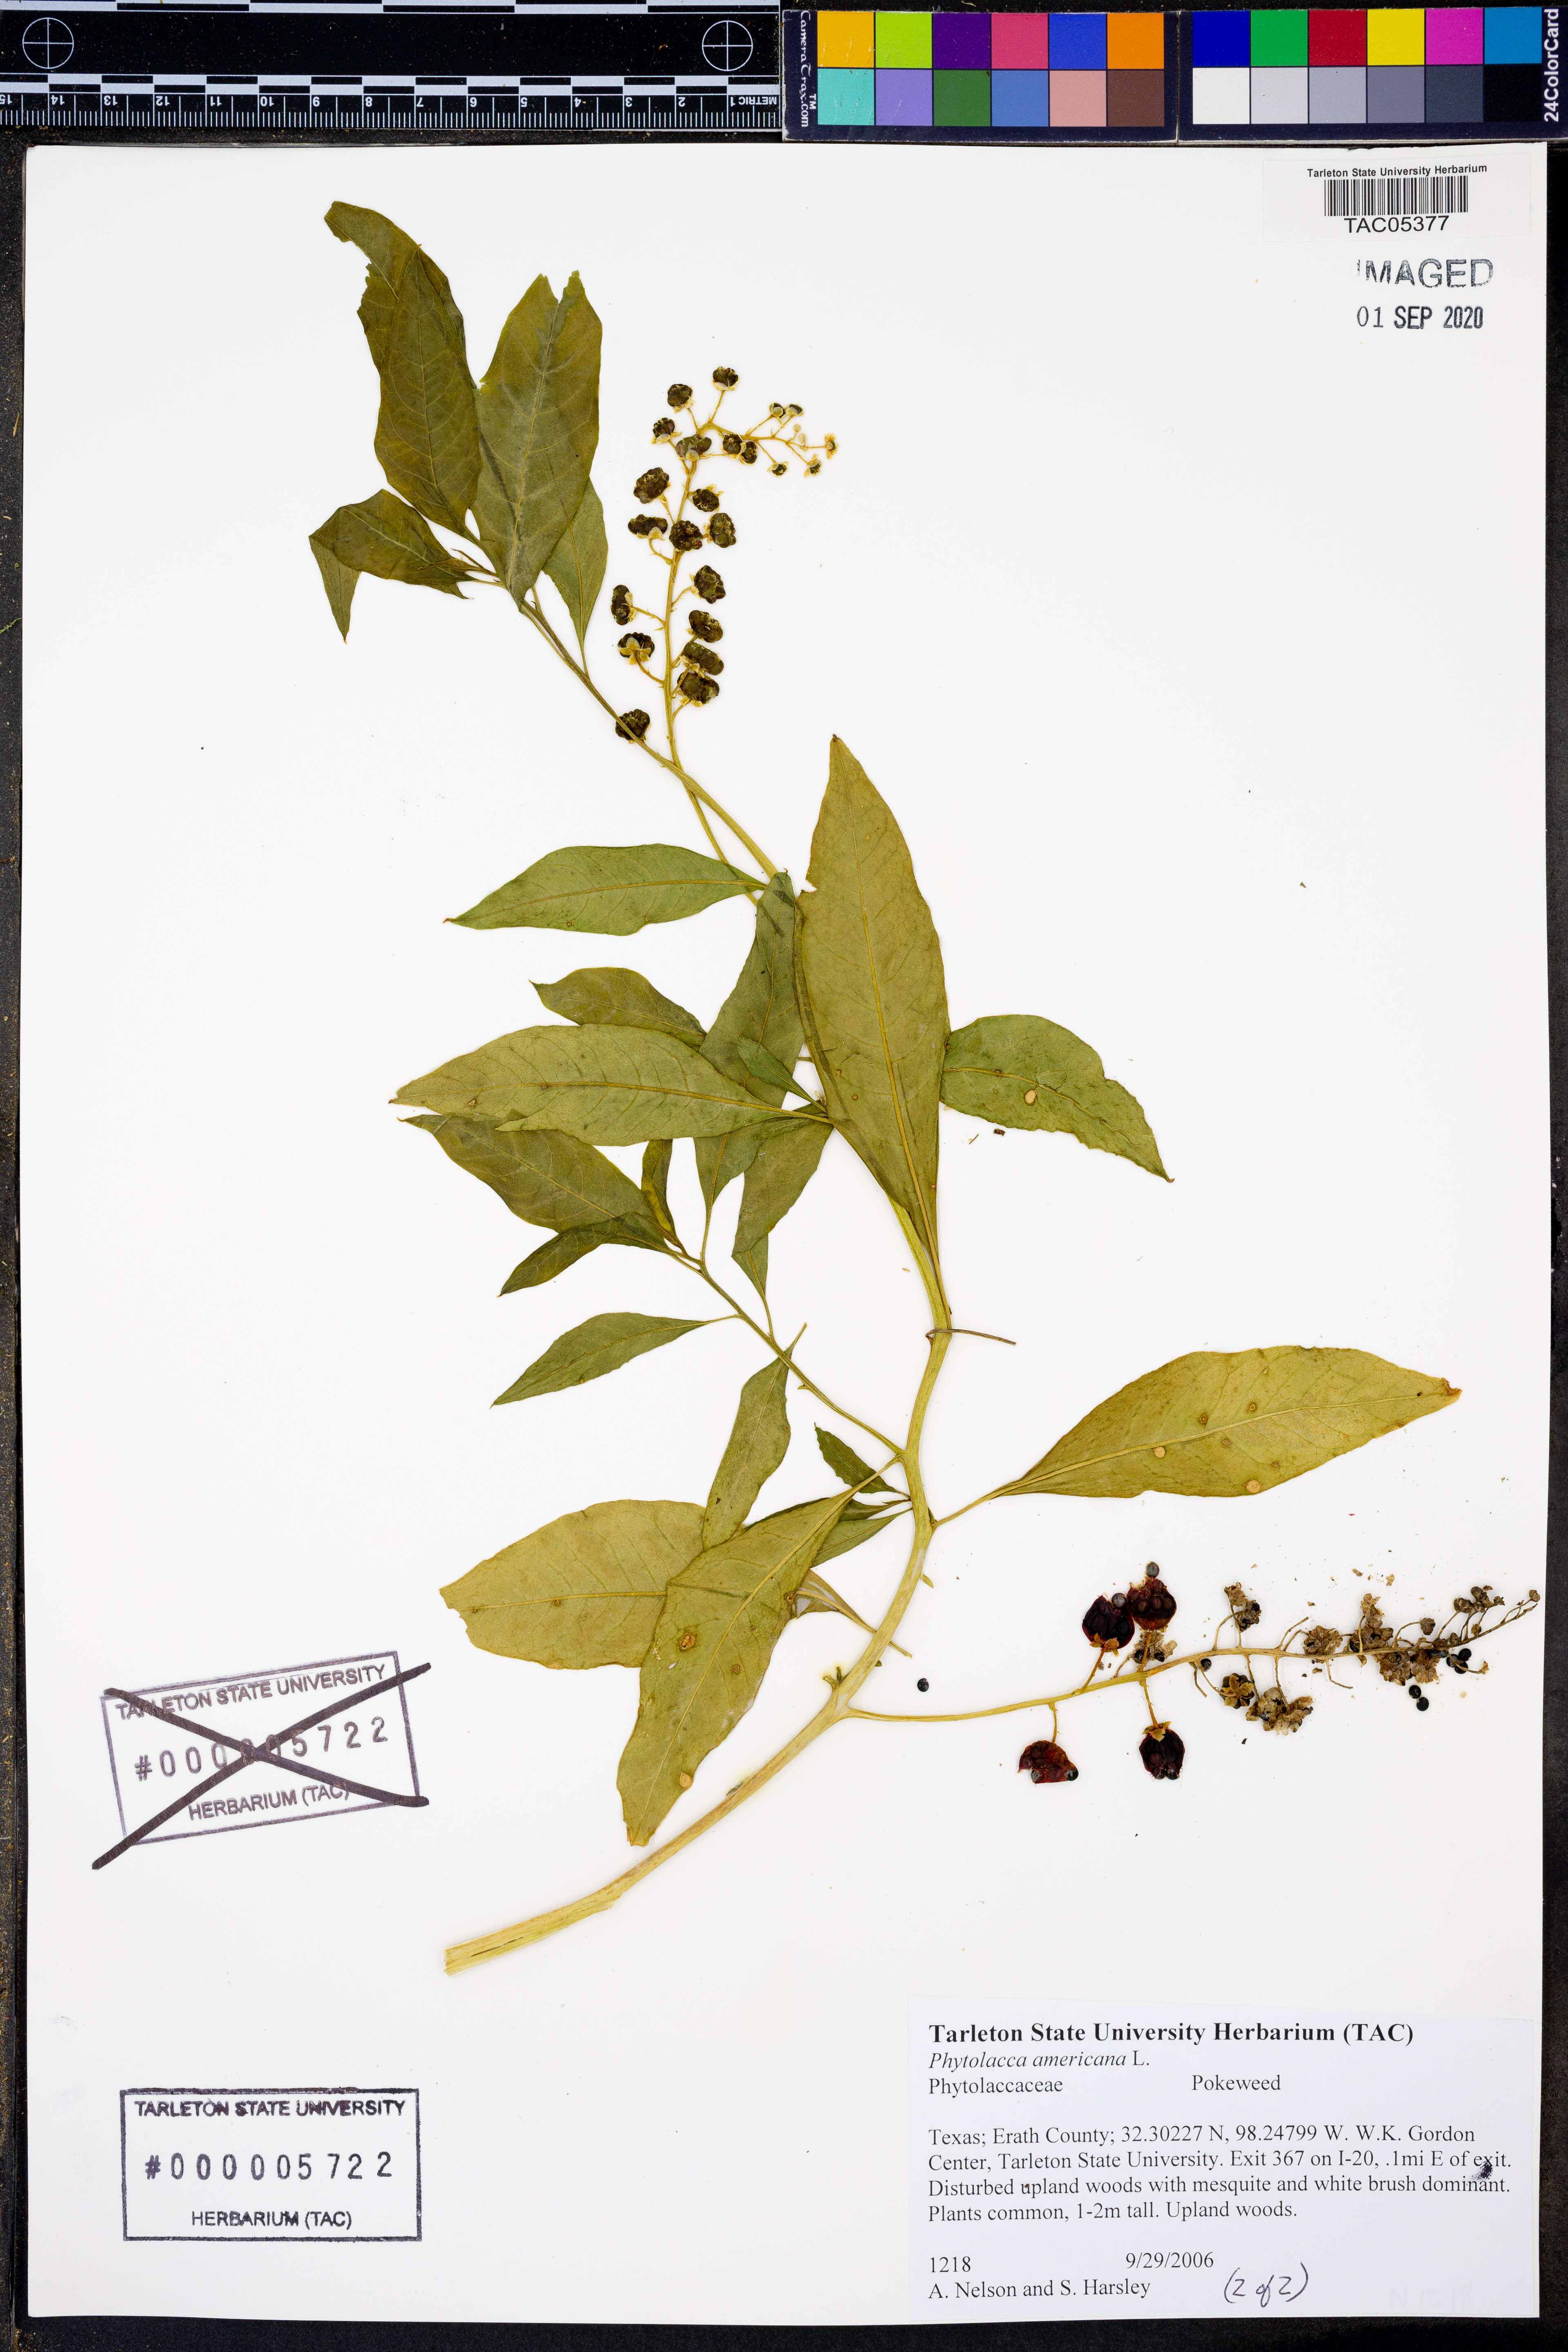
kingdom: Plantae
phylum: Tracheophyta
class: Magnoliopsida
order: Caryophyllales
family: Phytolaccaceae
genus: Phytolacca
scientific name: Phytolacca americana
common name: American pokeweed
